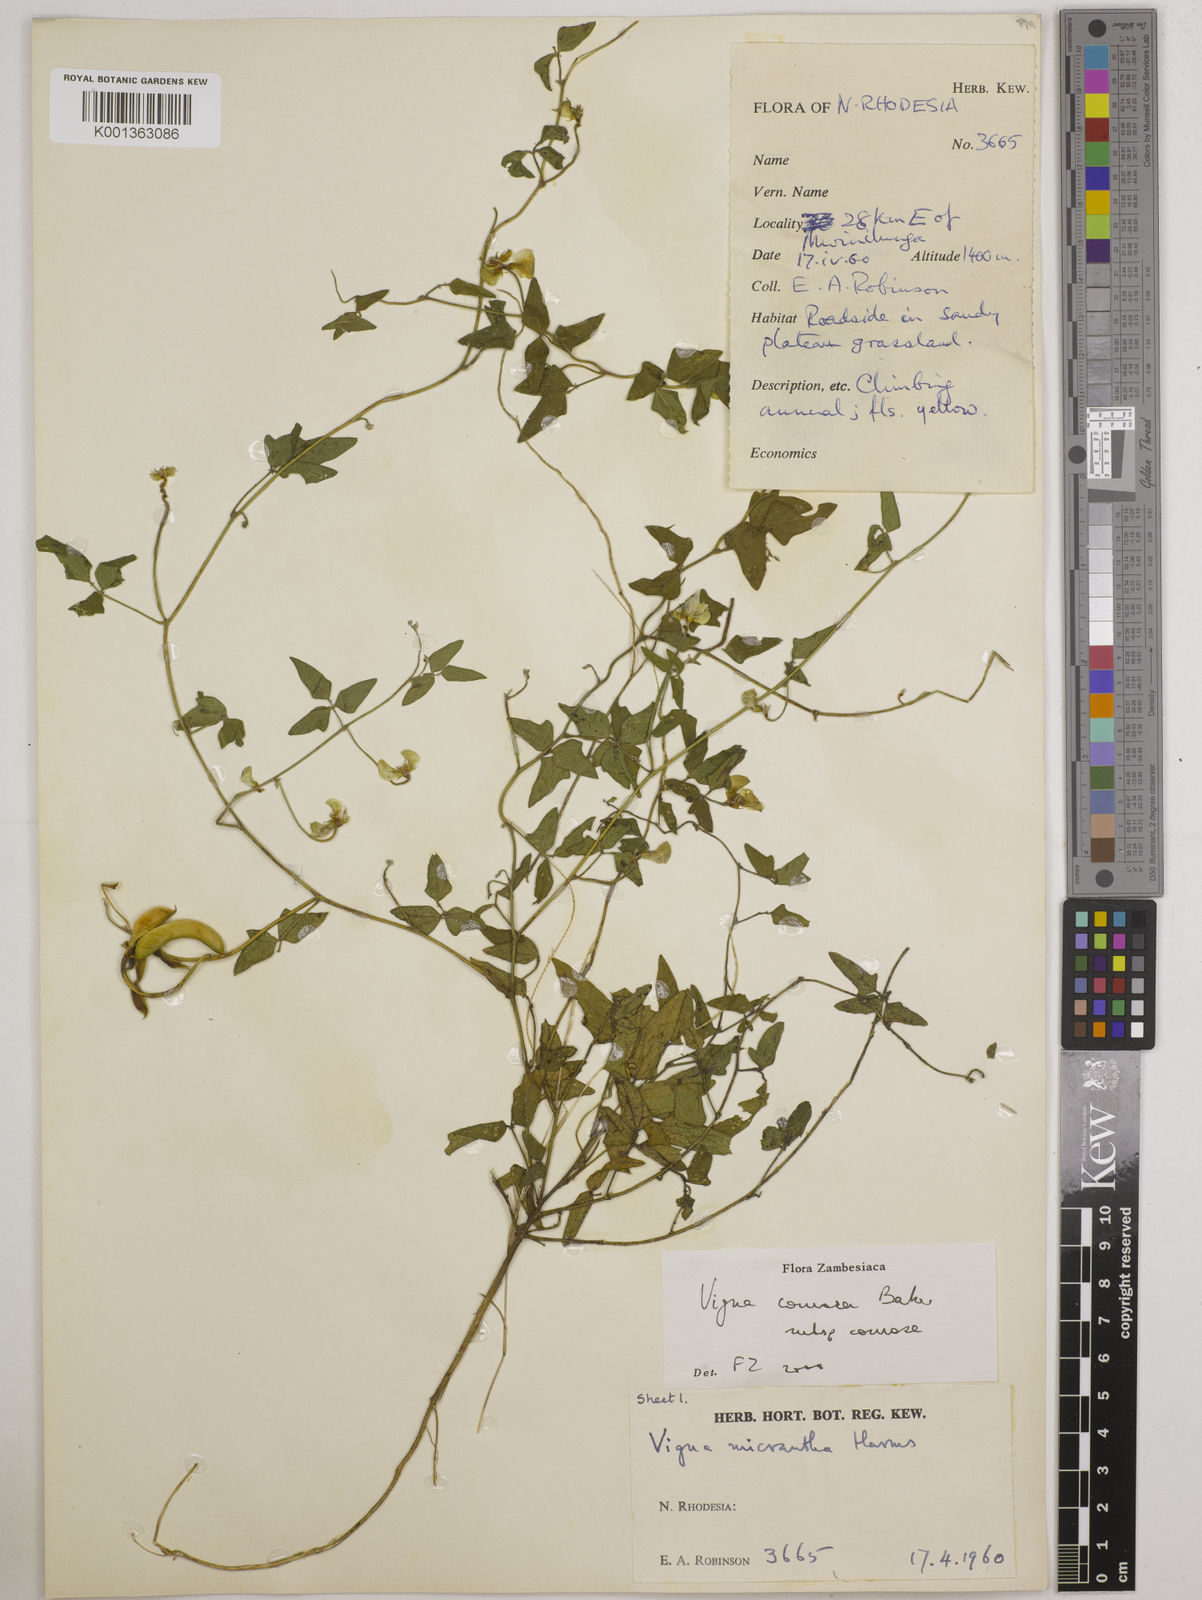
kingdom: Plantae
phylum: Tracheophyta
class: Magnoliopsida
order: Fabales
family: Fabaceae
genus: Vigna
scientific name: Vigna comosa
